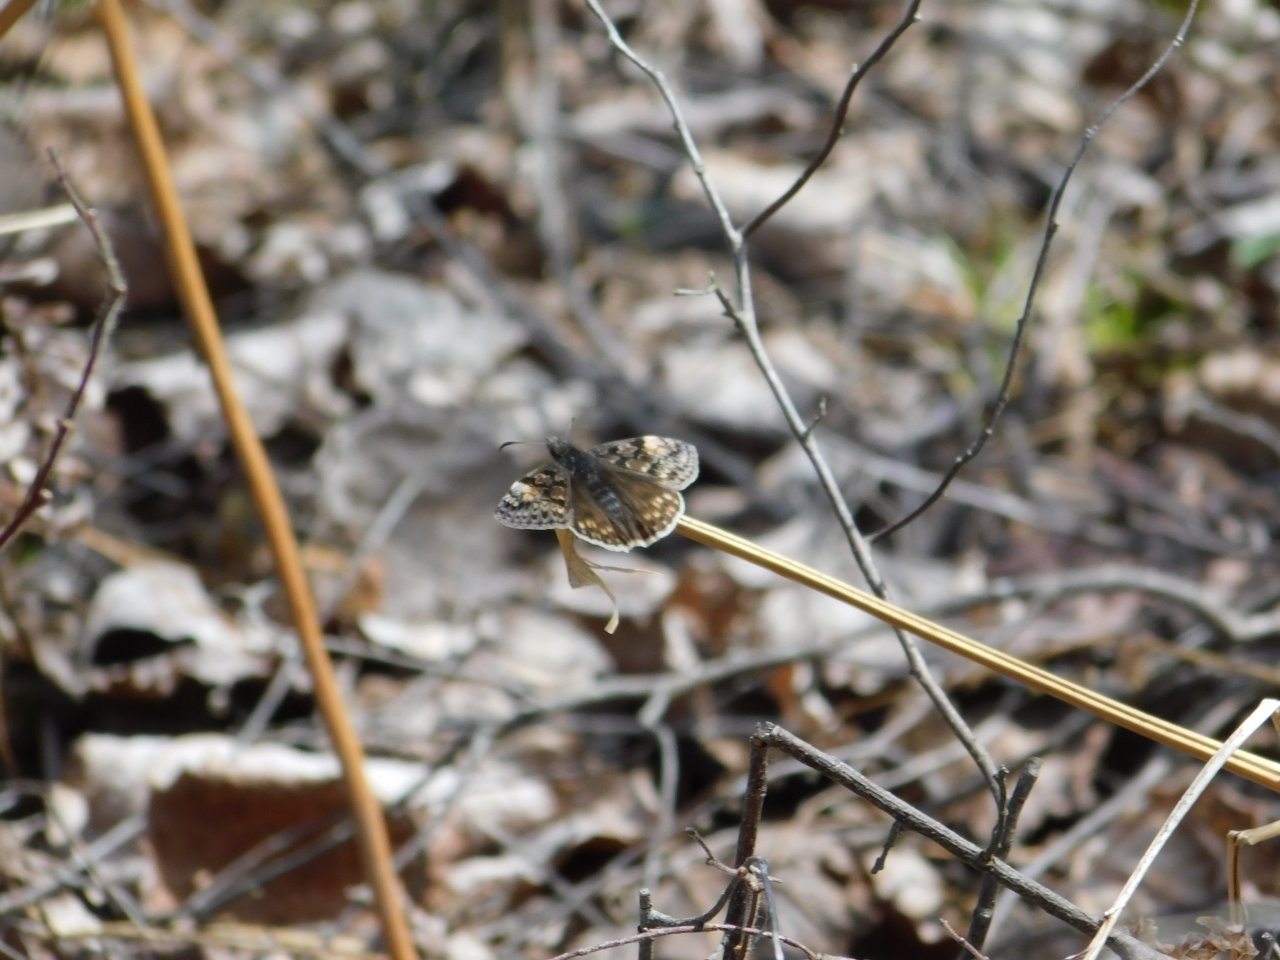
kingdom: Animalia
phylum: Arthropoda
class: Insecta
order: Lepidoptera
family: Hesperiidae
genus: Gesta
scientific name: Gesta
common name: Juvenal's Duskywing
